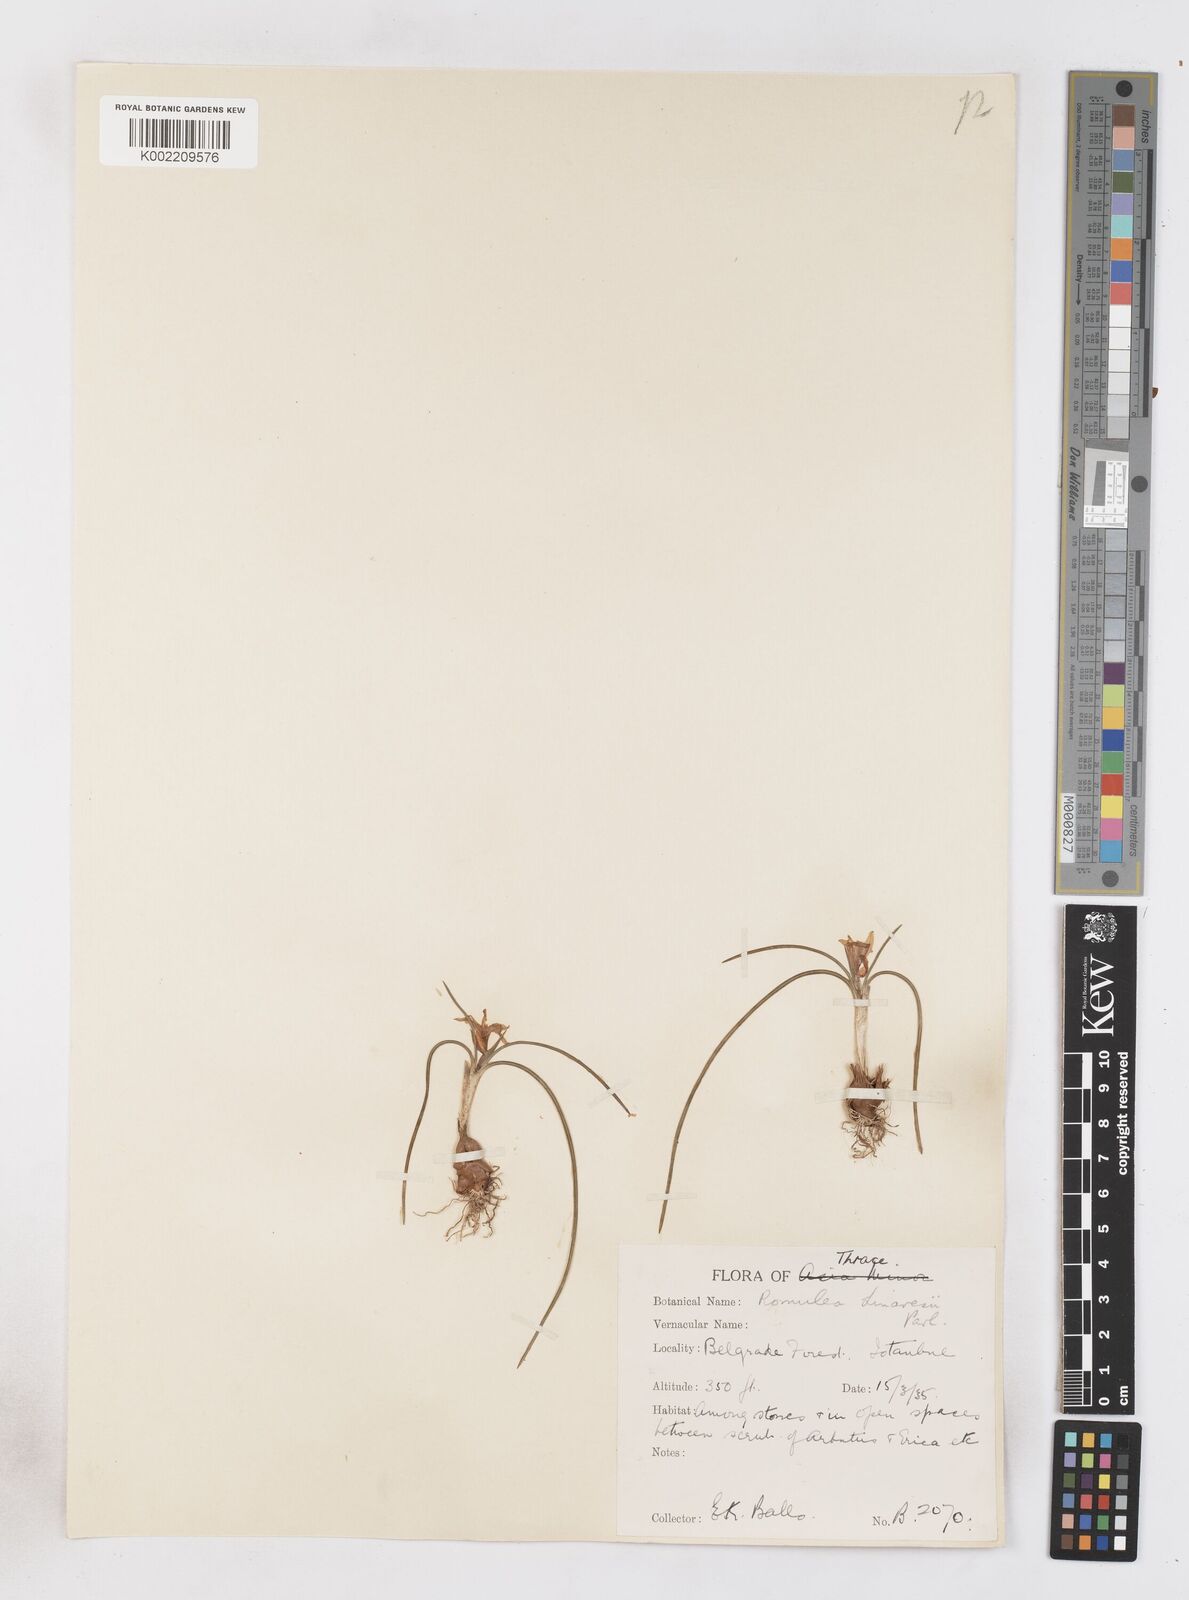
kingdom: Plantae
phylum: Tracheophyta
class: Liliopsida
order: Asparagales
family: Iridaceae
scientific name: Iridaceae
